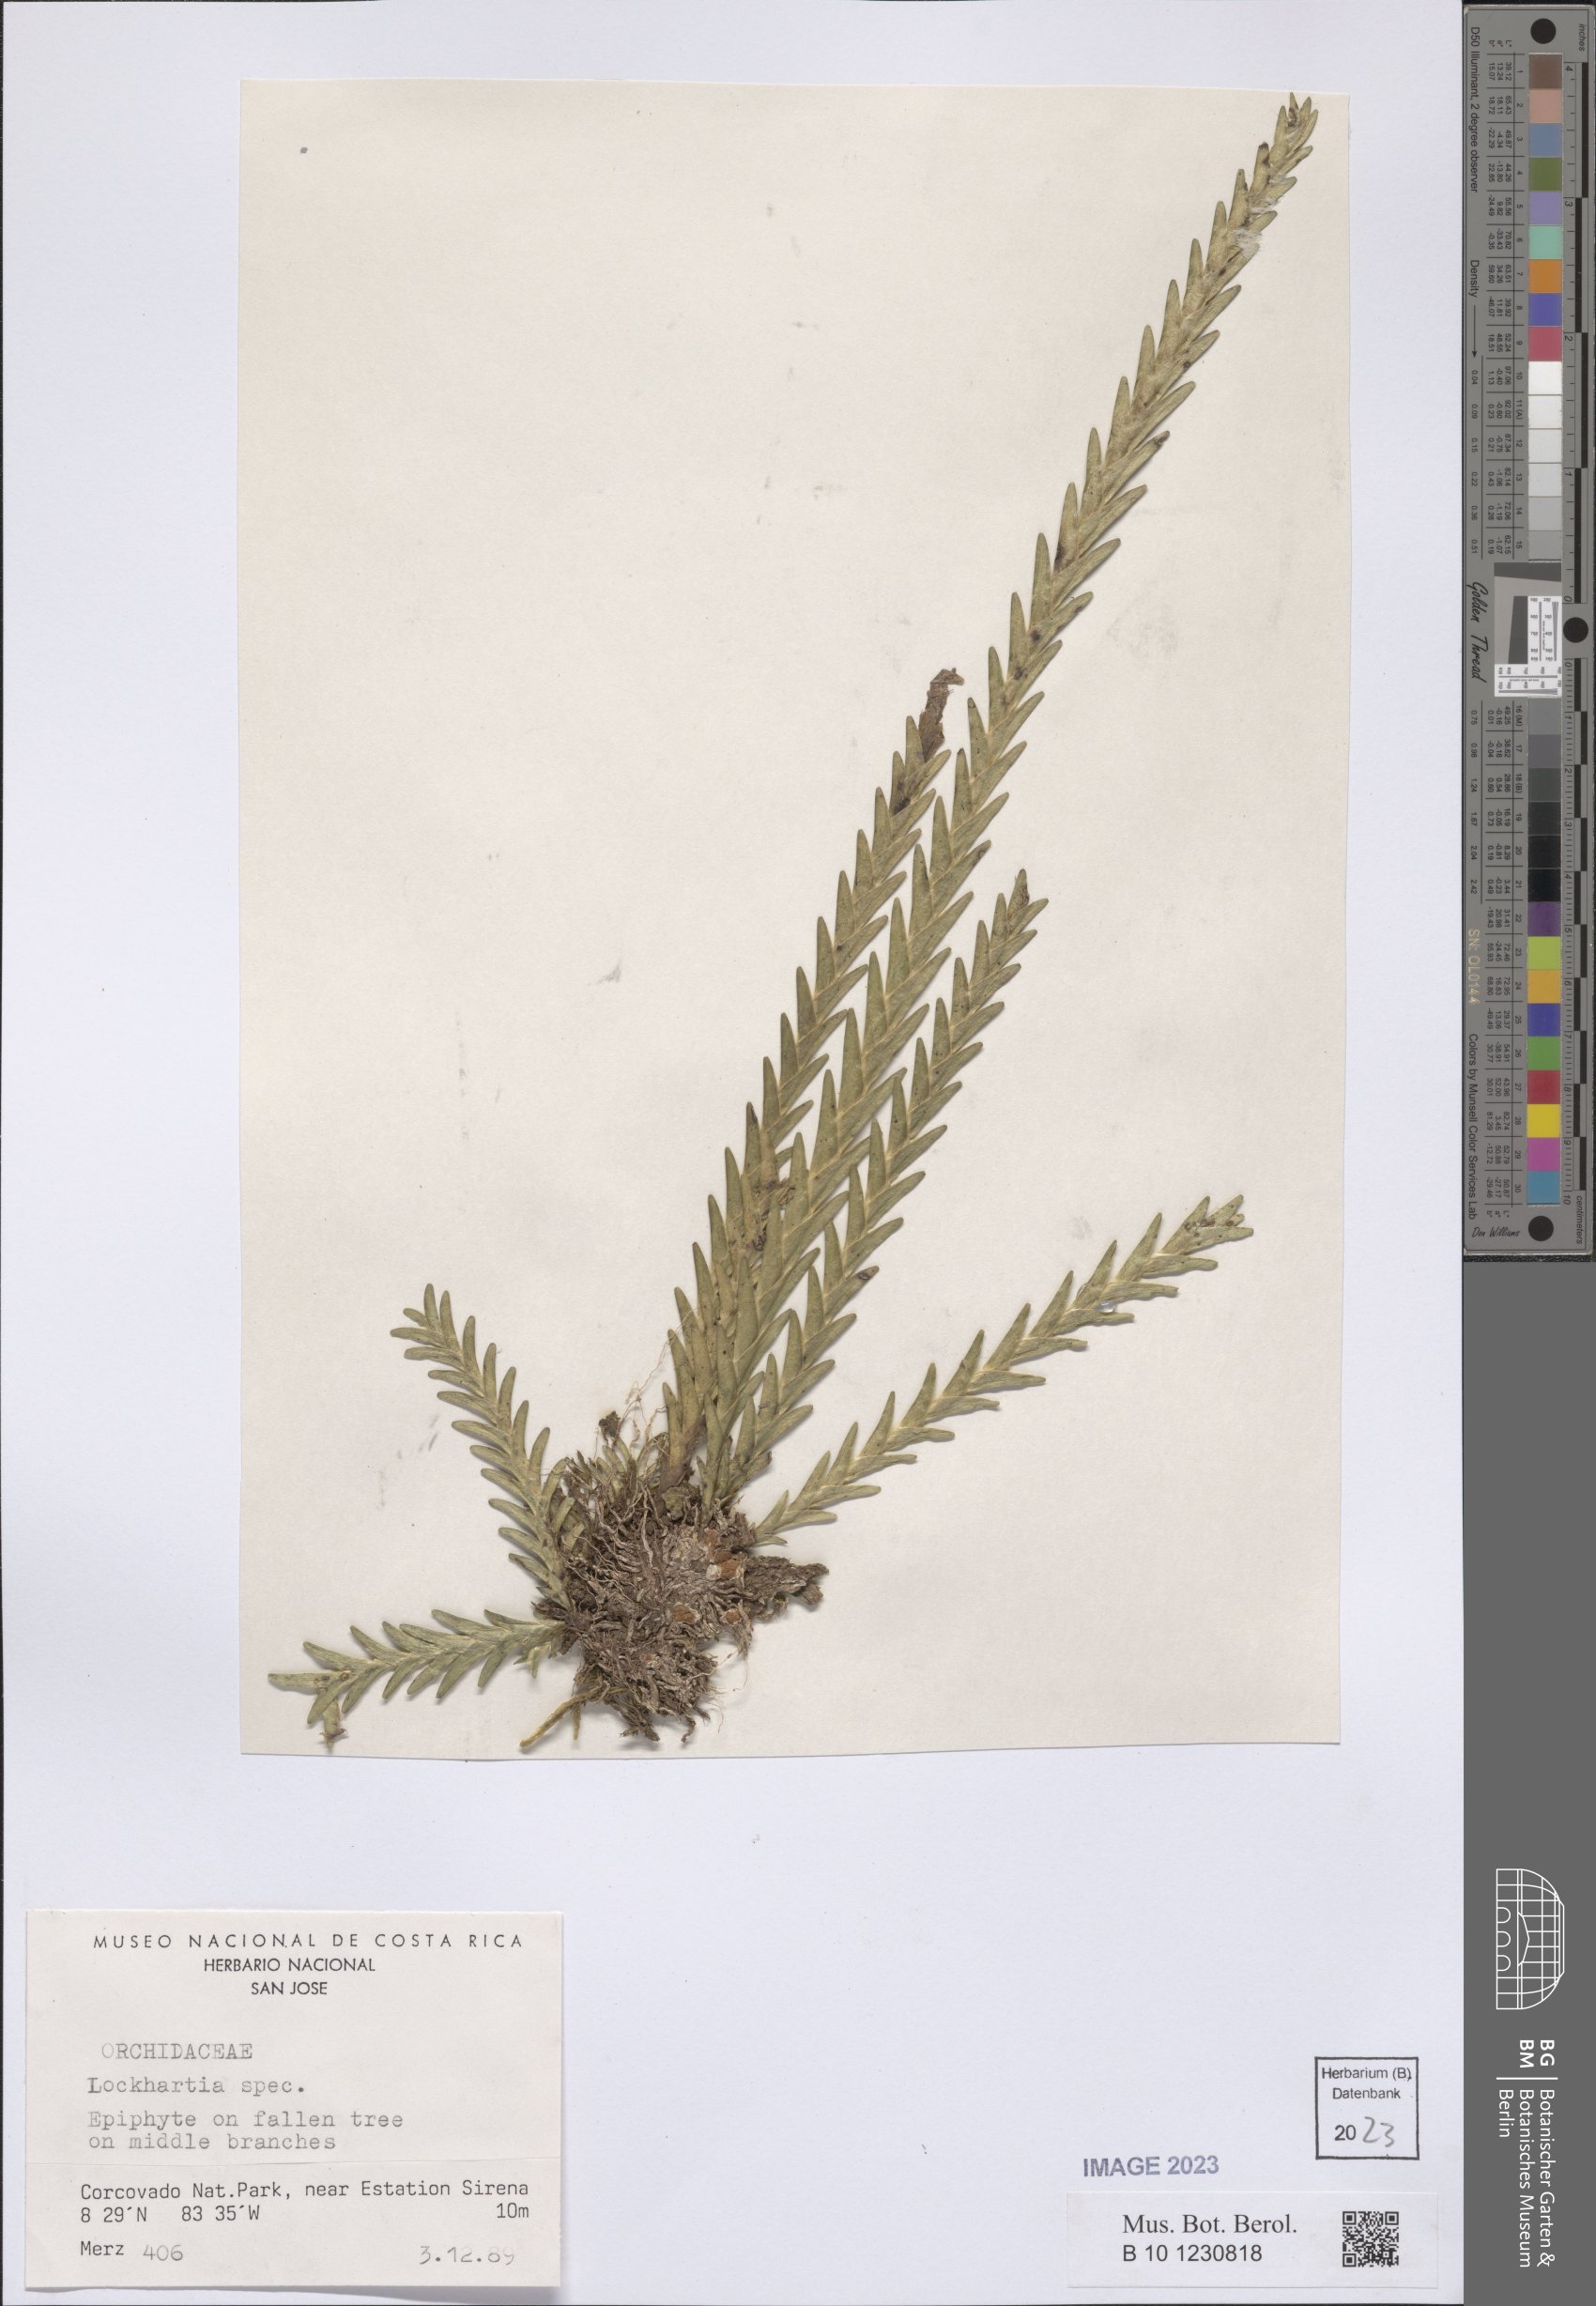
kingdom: Plantae
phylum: Tracheophyta
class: Liliopsida
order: Asparagales
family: Orchidaceae
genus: Lockhartia
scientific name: Lockhartia
